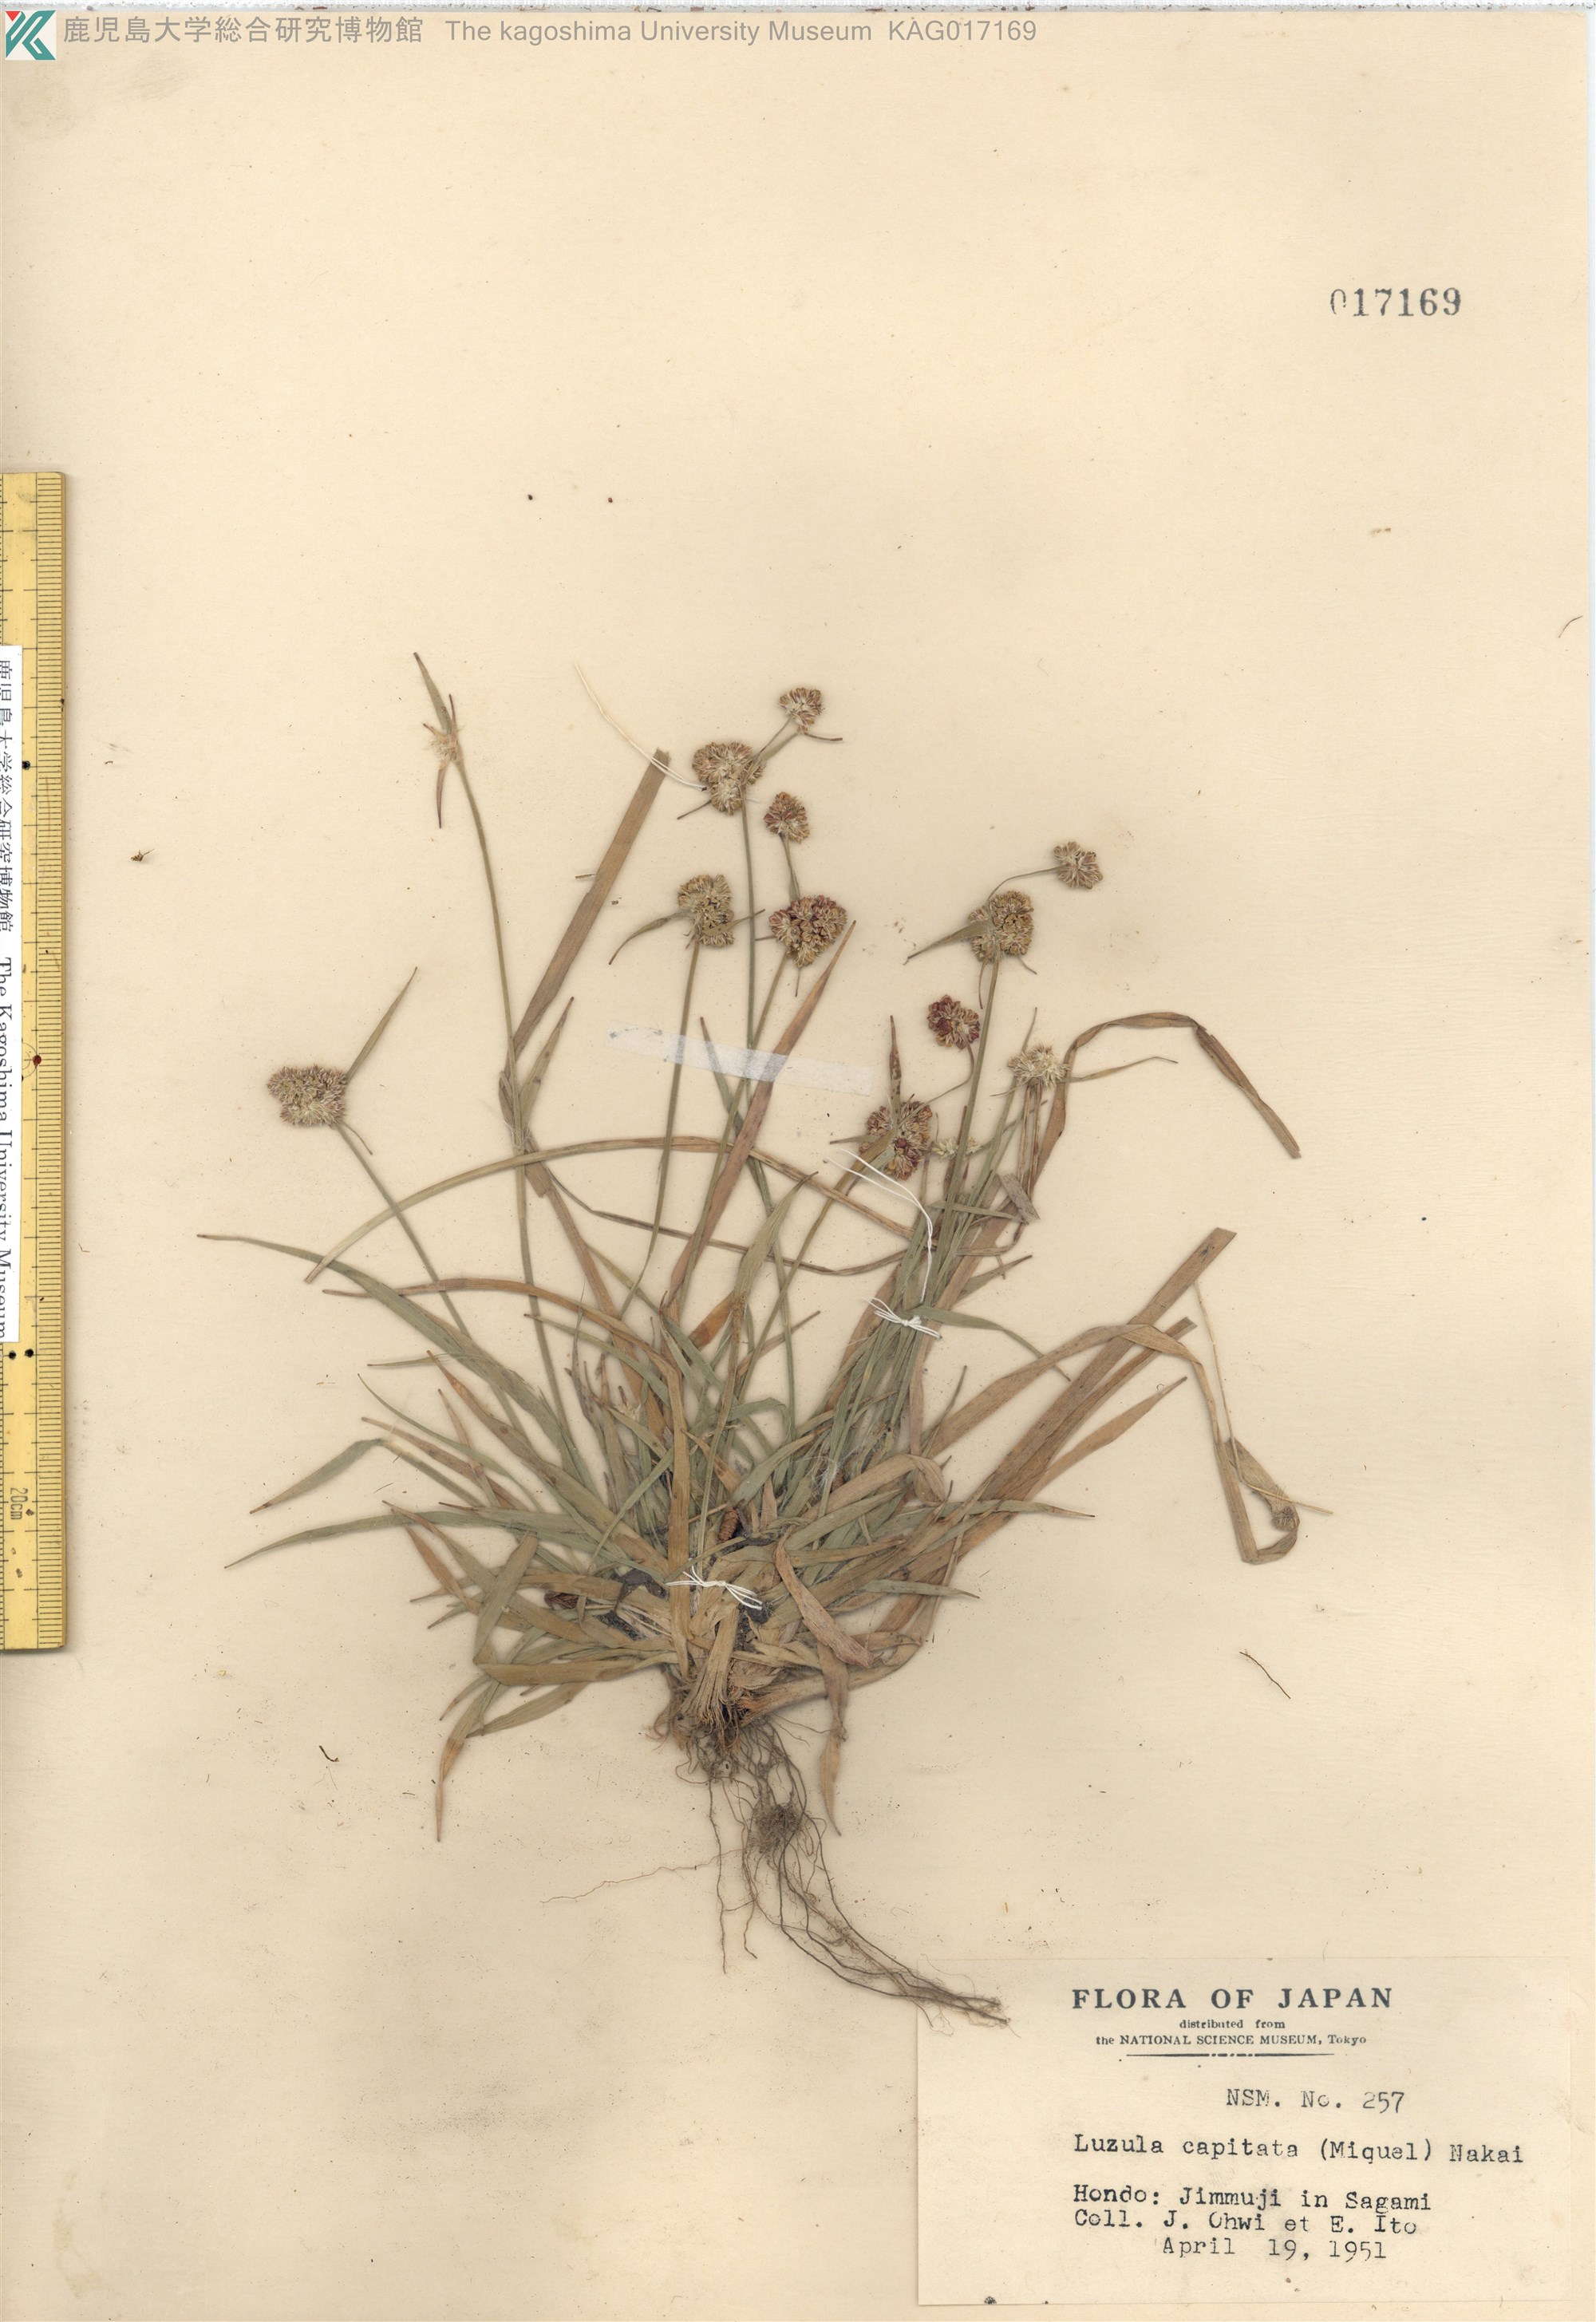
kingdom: Plantae
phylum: Tracheophyta
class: Liliopsida
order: Poales
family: Juncaceae
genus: Luzula
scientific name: Luzula capitata
